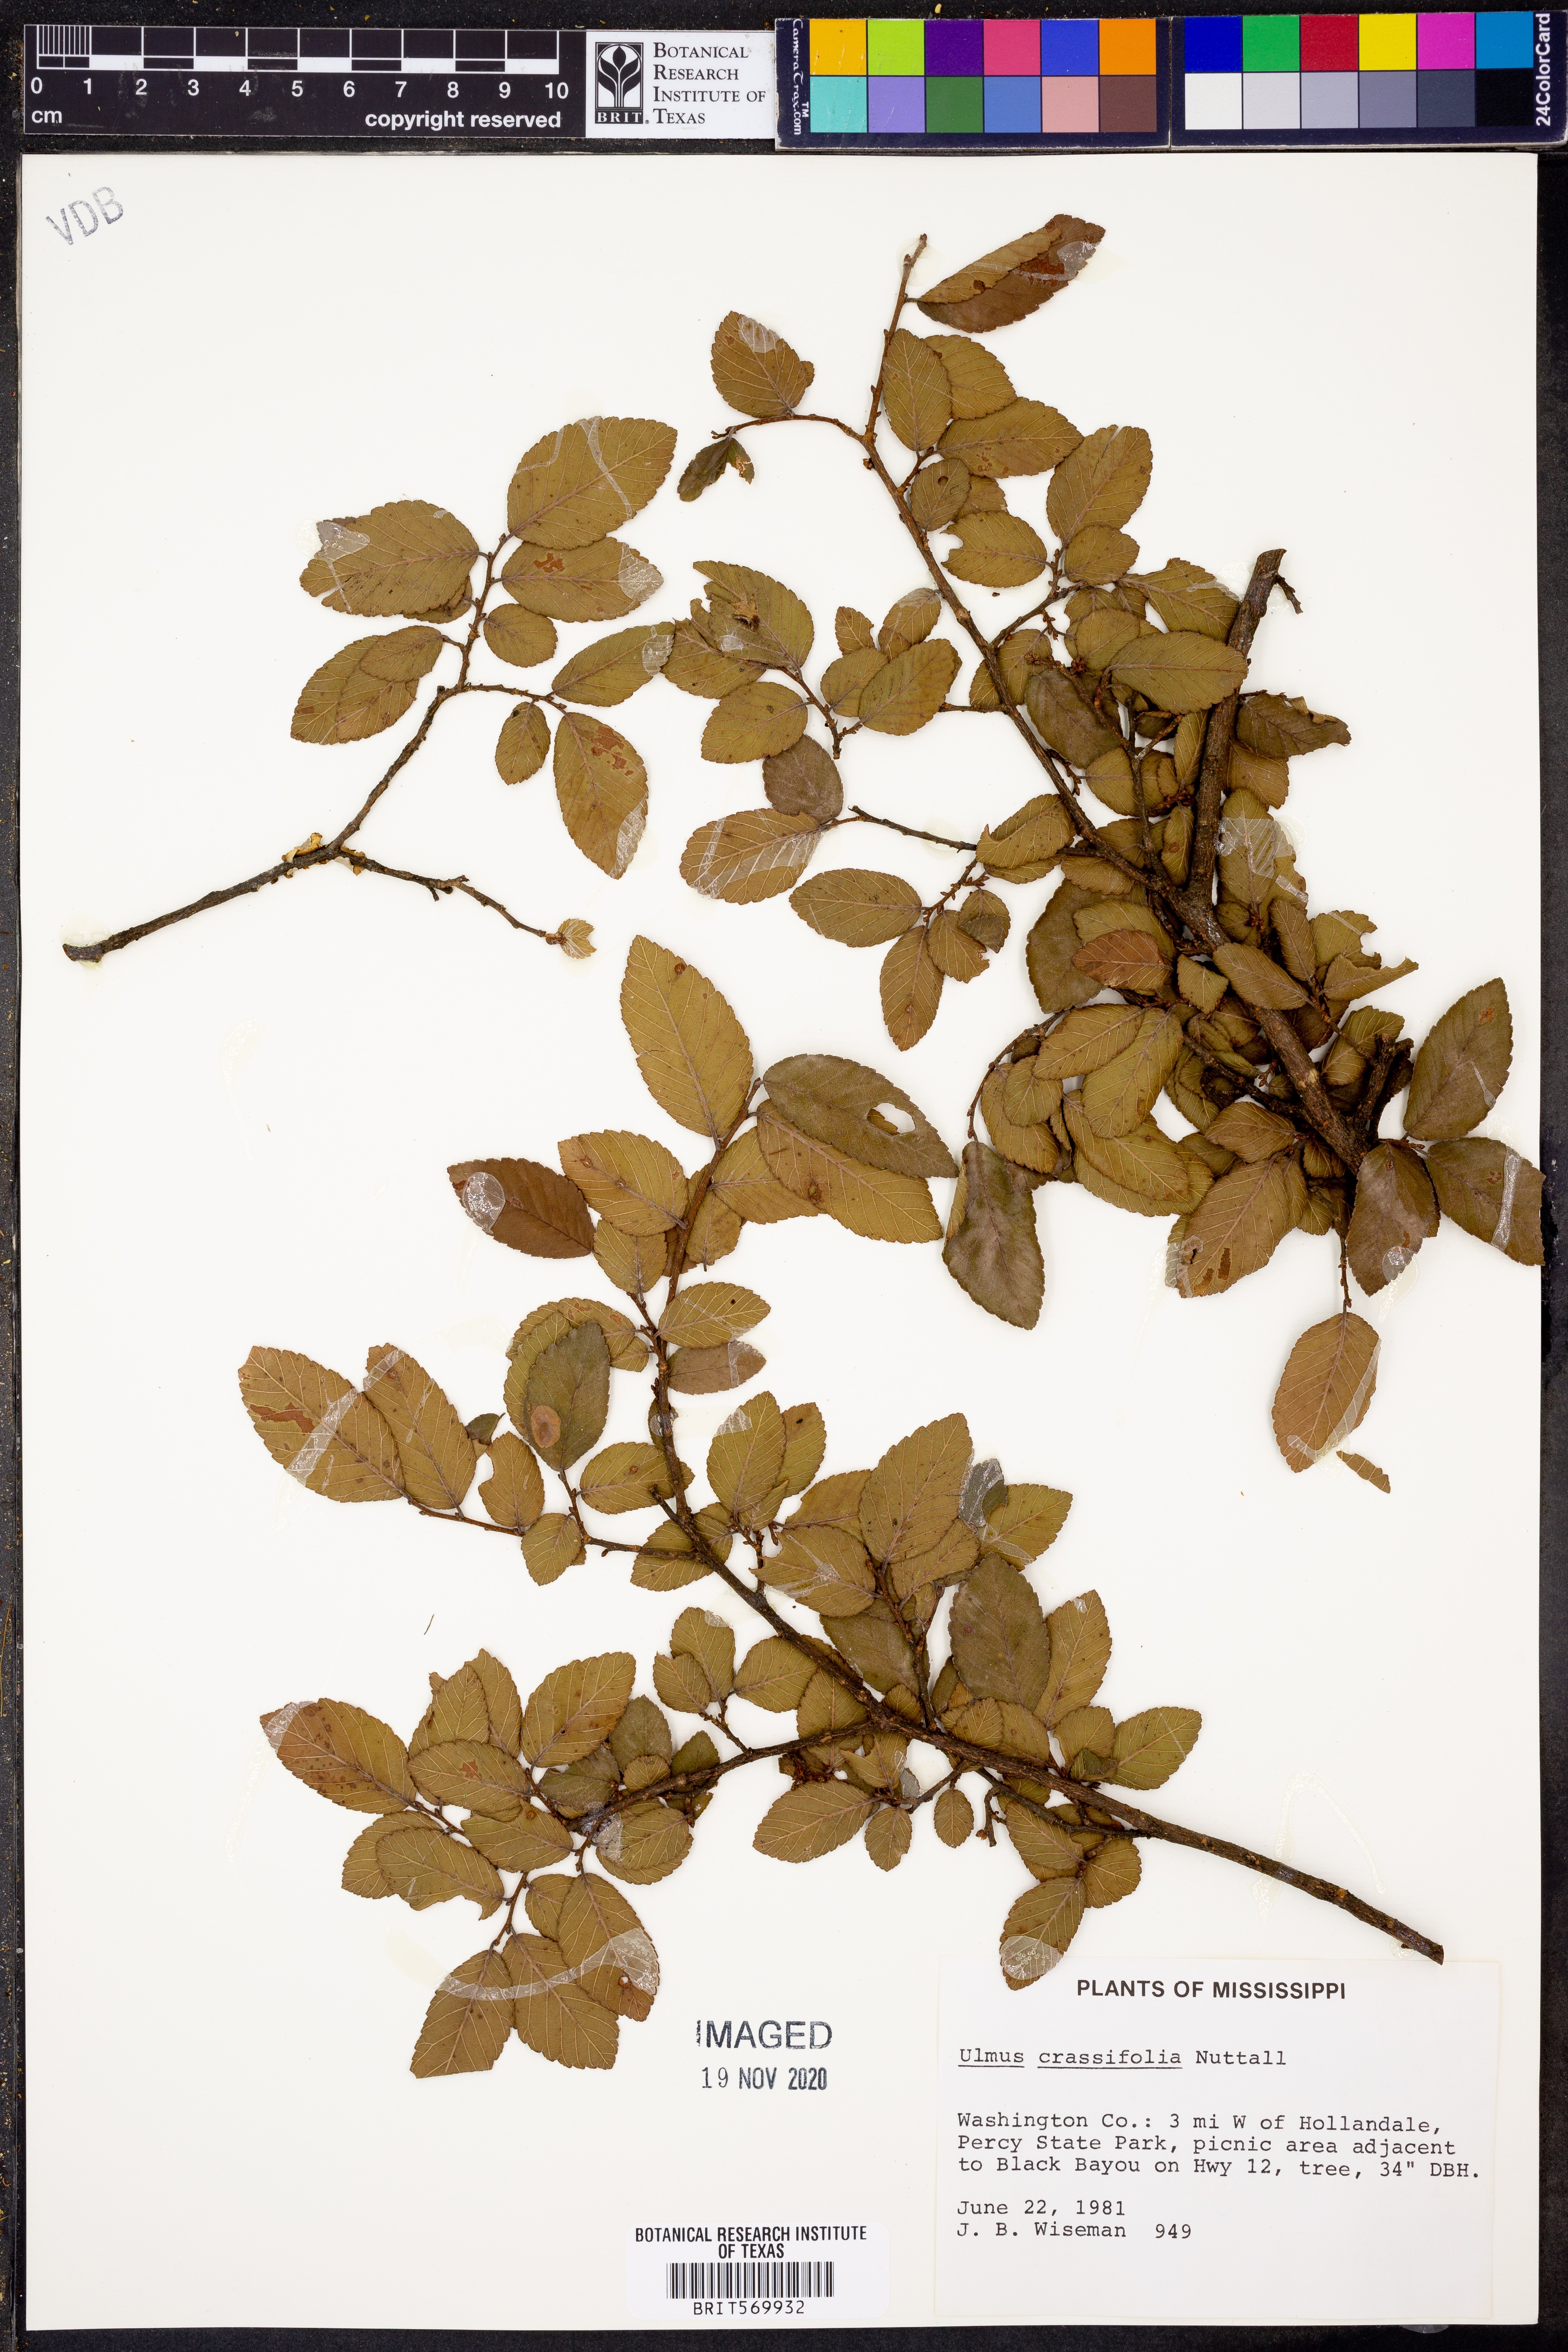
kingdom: Plantae
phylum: Tracheophyta
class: Magnoliopsida
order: Rosales
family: Ulmaceae
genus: Ulmus
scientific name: Ulmus crassifolia
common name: Basket elm
